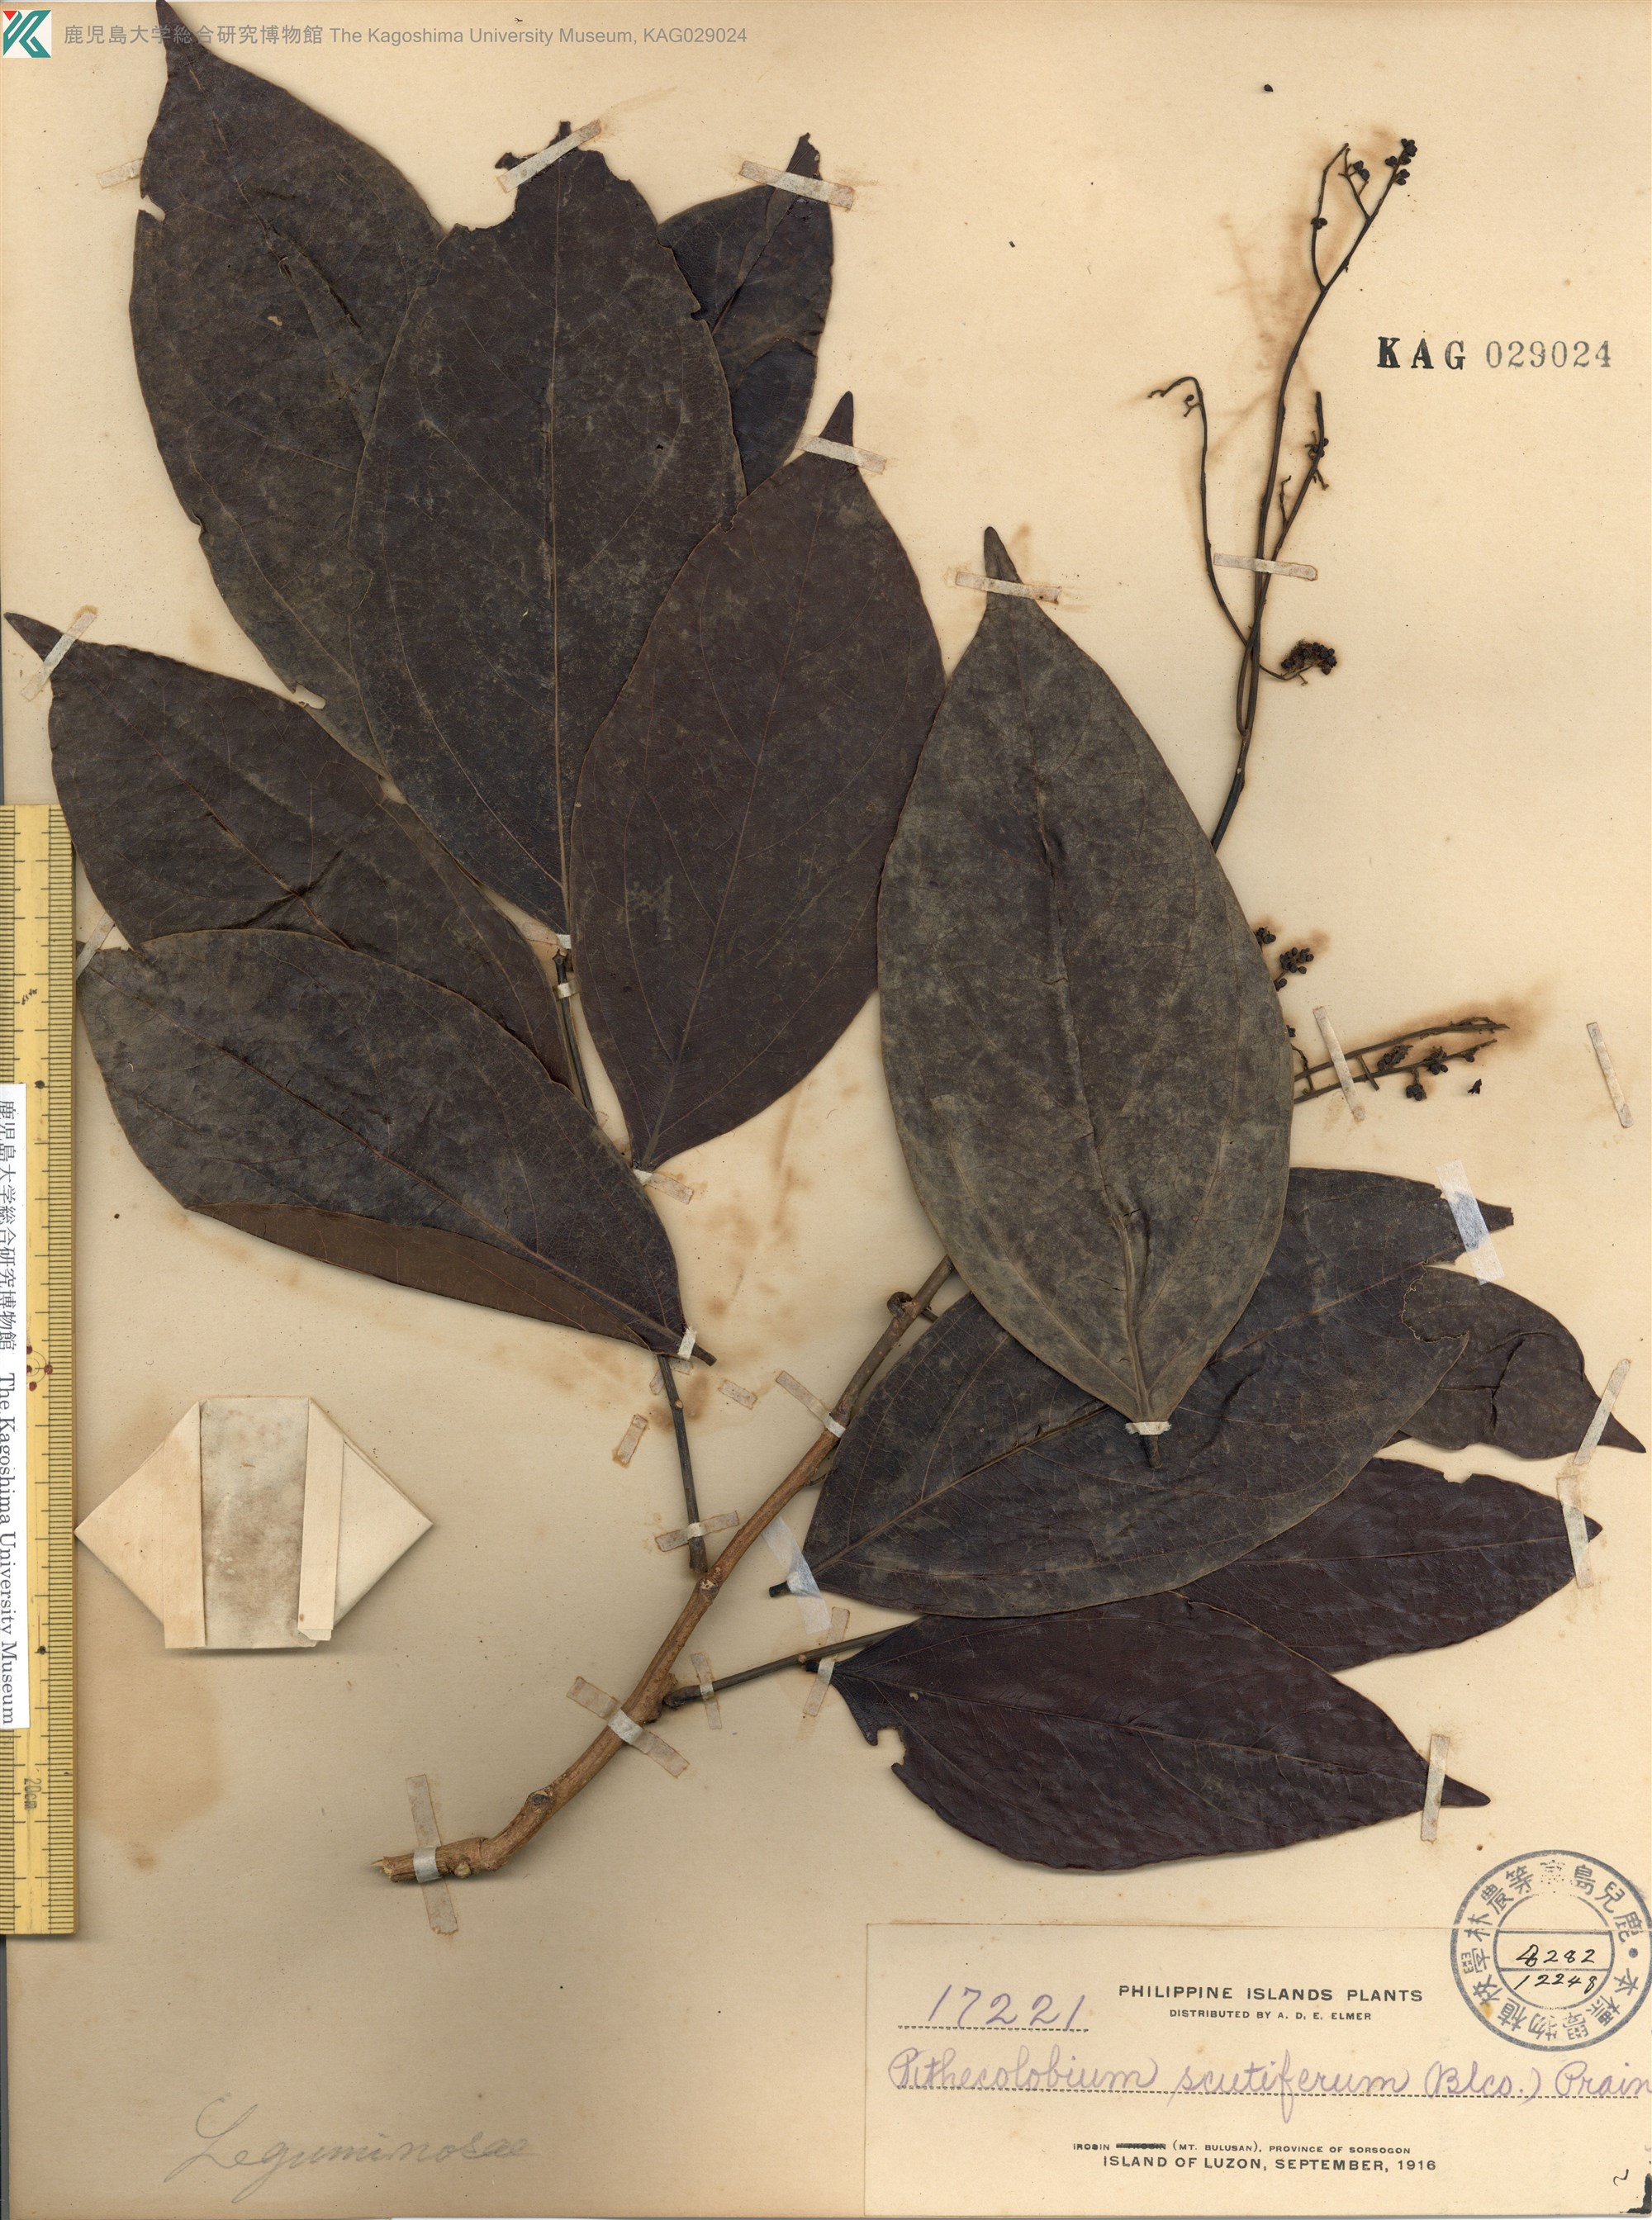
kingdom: Plantae
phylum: Tracheophyta
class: Magnoliopsida
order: Fabales
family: Fabaceae
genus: Archidendron
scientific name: Archidendron scutiferum
